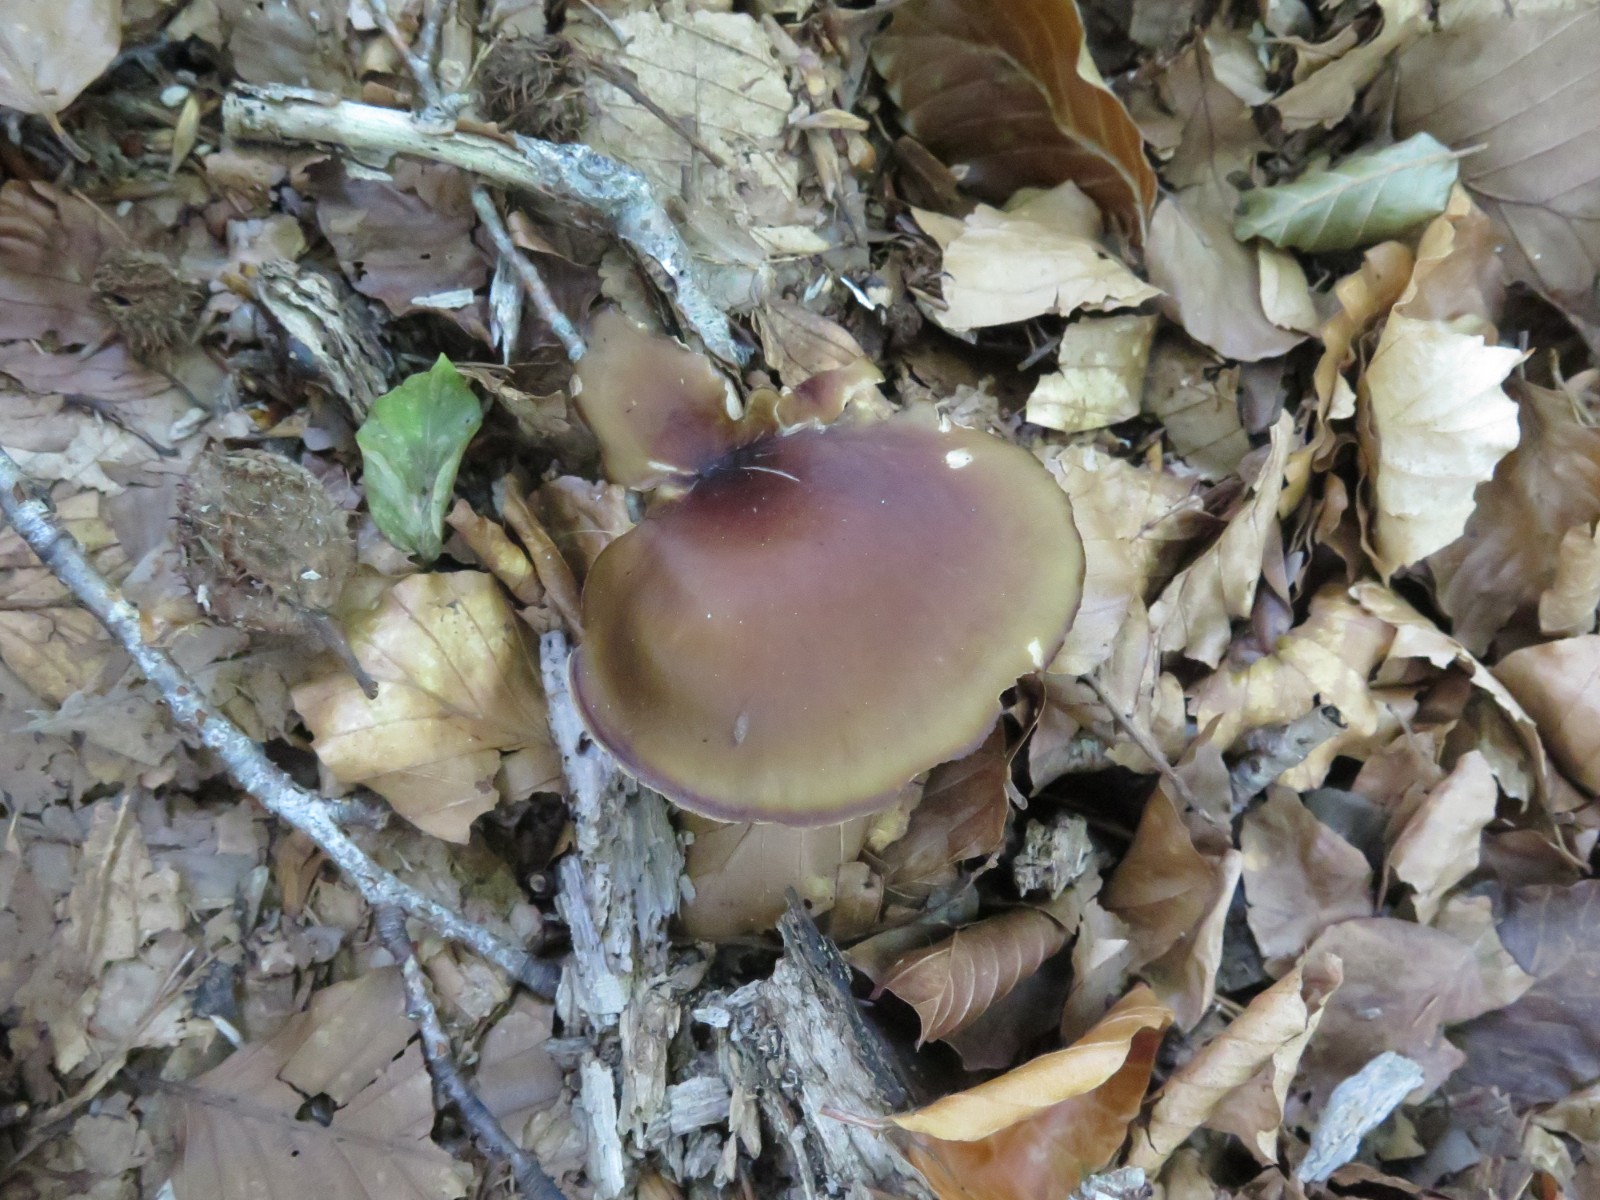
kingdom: Fungi
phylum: Basidiomycota
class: Agaricomycetes
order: Polyporales
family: Polyporaceae
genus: Picipes
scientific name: Picipes badius
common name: kastaniebrun stilkporesvamp
